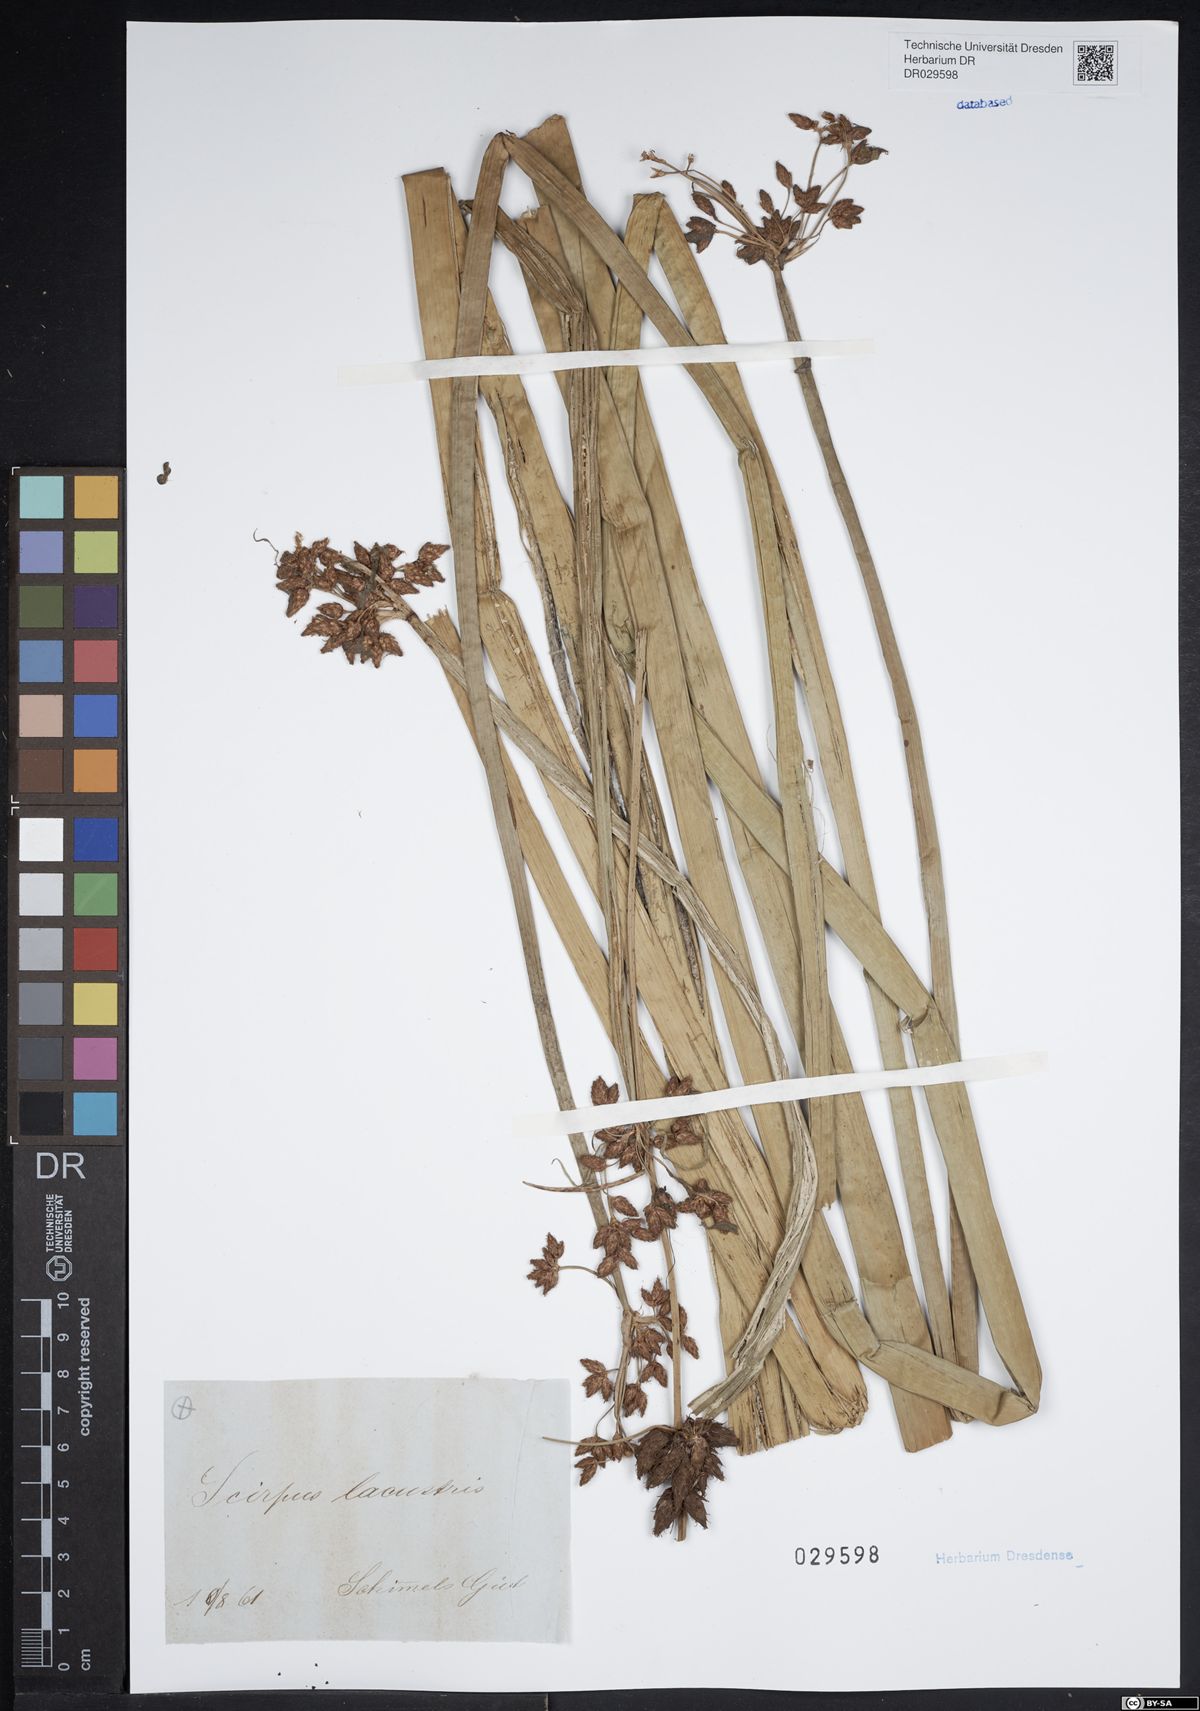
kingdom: Plantae
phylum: Tracheophyta
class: Liliopsida
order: Poales
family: Cyperaceae
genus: Schoenoplectus
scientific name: Schoenoplectus lacustris
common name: Common club-rush
